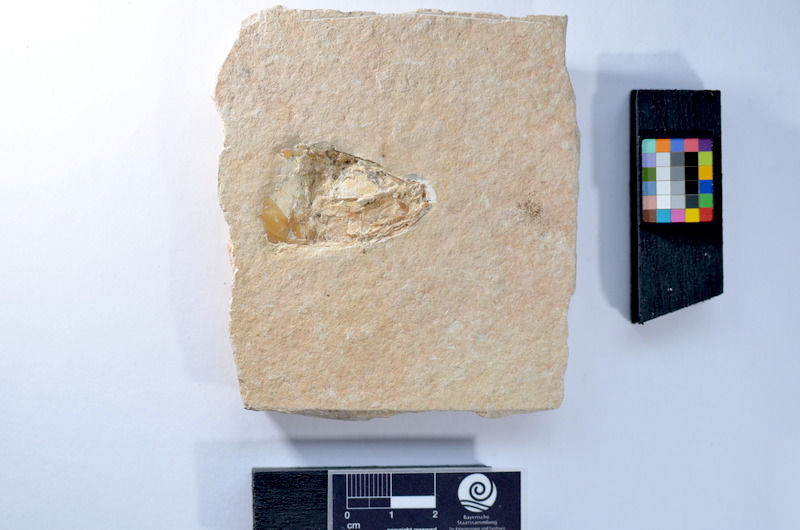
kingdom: Animalia
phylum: Chordata
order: Elopiformes
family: Anaethalionidae
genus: Anaethalion
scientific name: Anaethalion knorri
